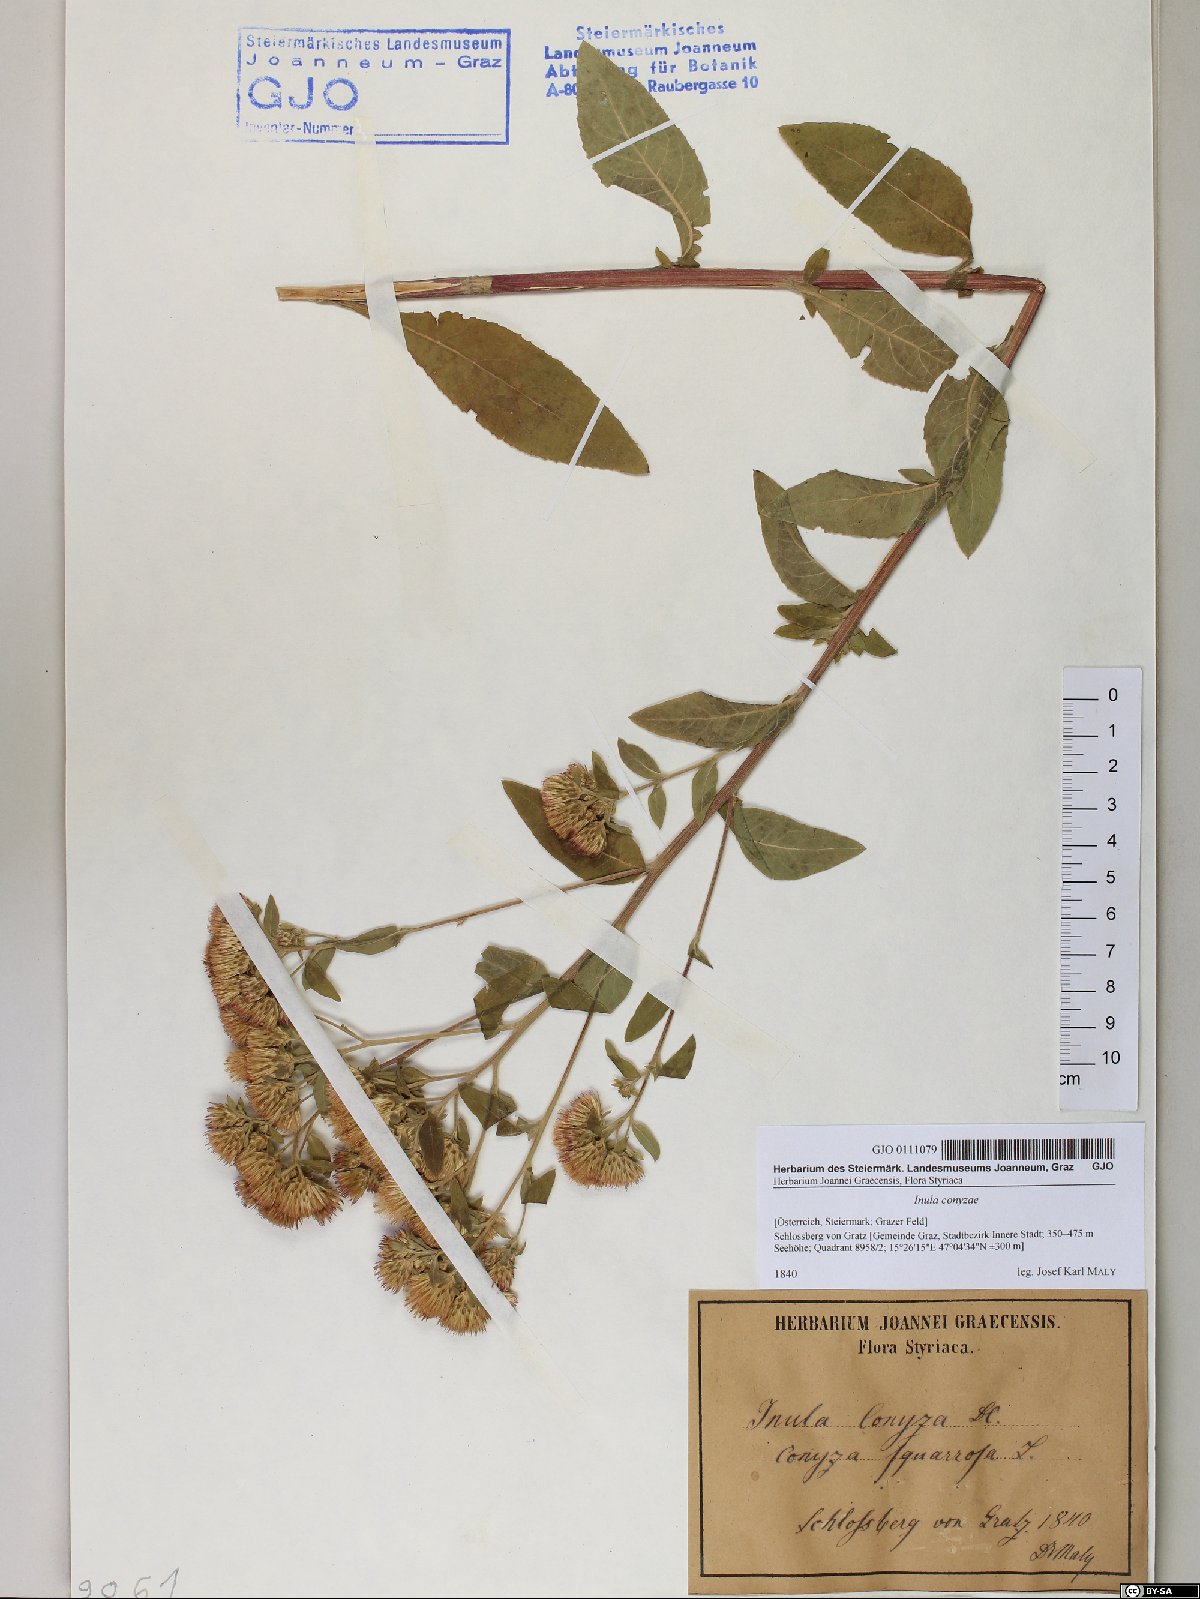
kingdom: Plantae
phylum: Tracheophyta
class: Magnoliopsida
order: Asterales
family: Asteraceae
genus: Pentanema
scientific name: Pentanema squarrosum
